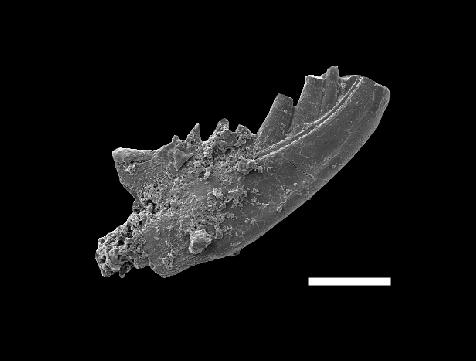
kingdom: Animalia
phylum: Chordata
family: Panderodontidae
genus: Pseudobelodina
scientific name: Pseudobelodina
